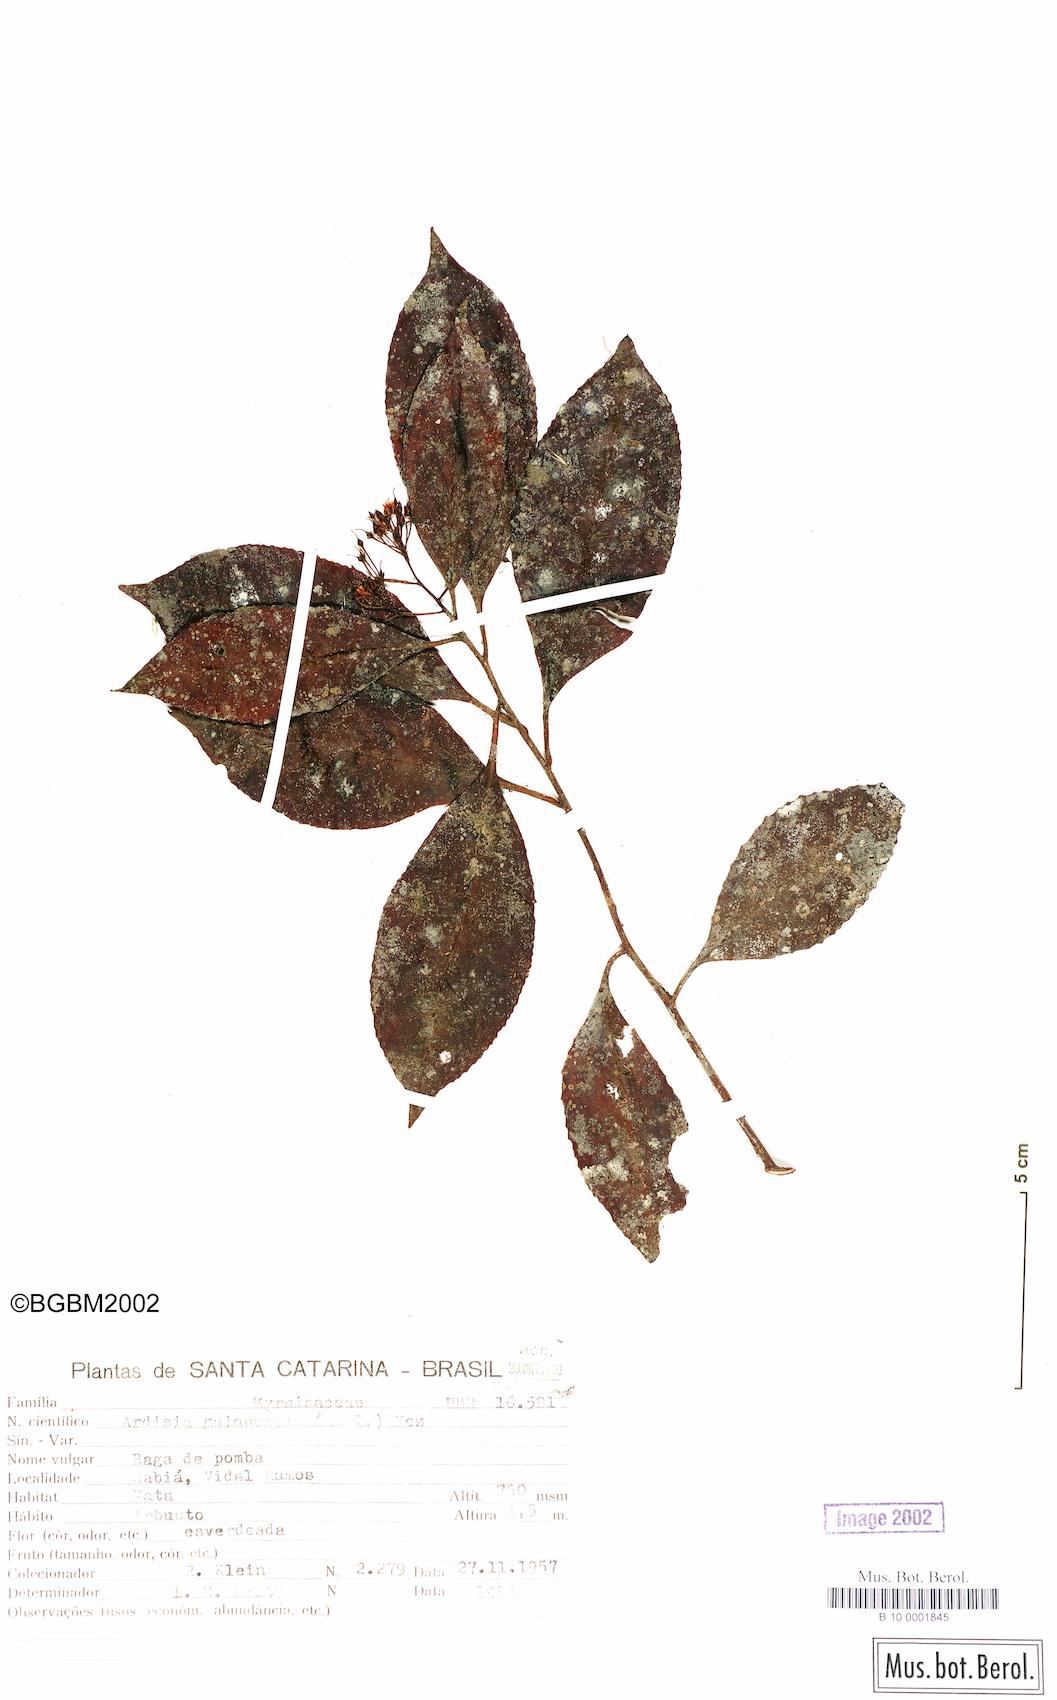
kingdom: Plantae
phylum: Tracheophyta
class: Magnoliopsida
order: Ericales
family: Primulaceae
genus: Ardisia
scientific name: Ardisia guianensis
